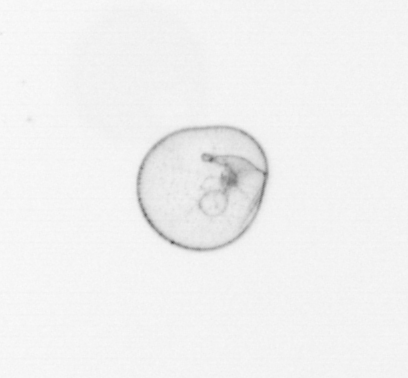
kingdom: Chromista
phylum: Myzozoa
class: Dinophyceae
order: Noctilucales
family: Noctilucaceae
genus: Noctiluca
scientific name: Noctiluca scintillans
